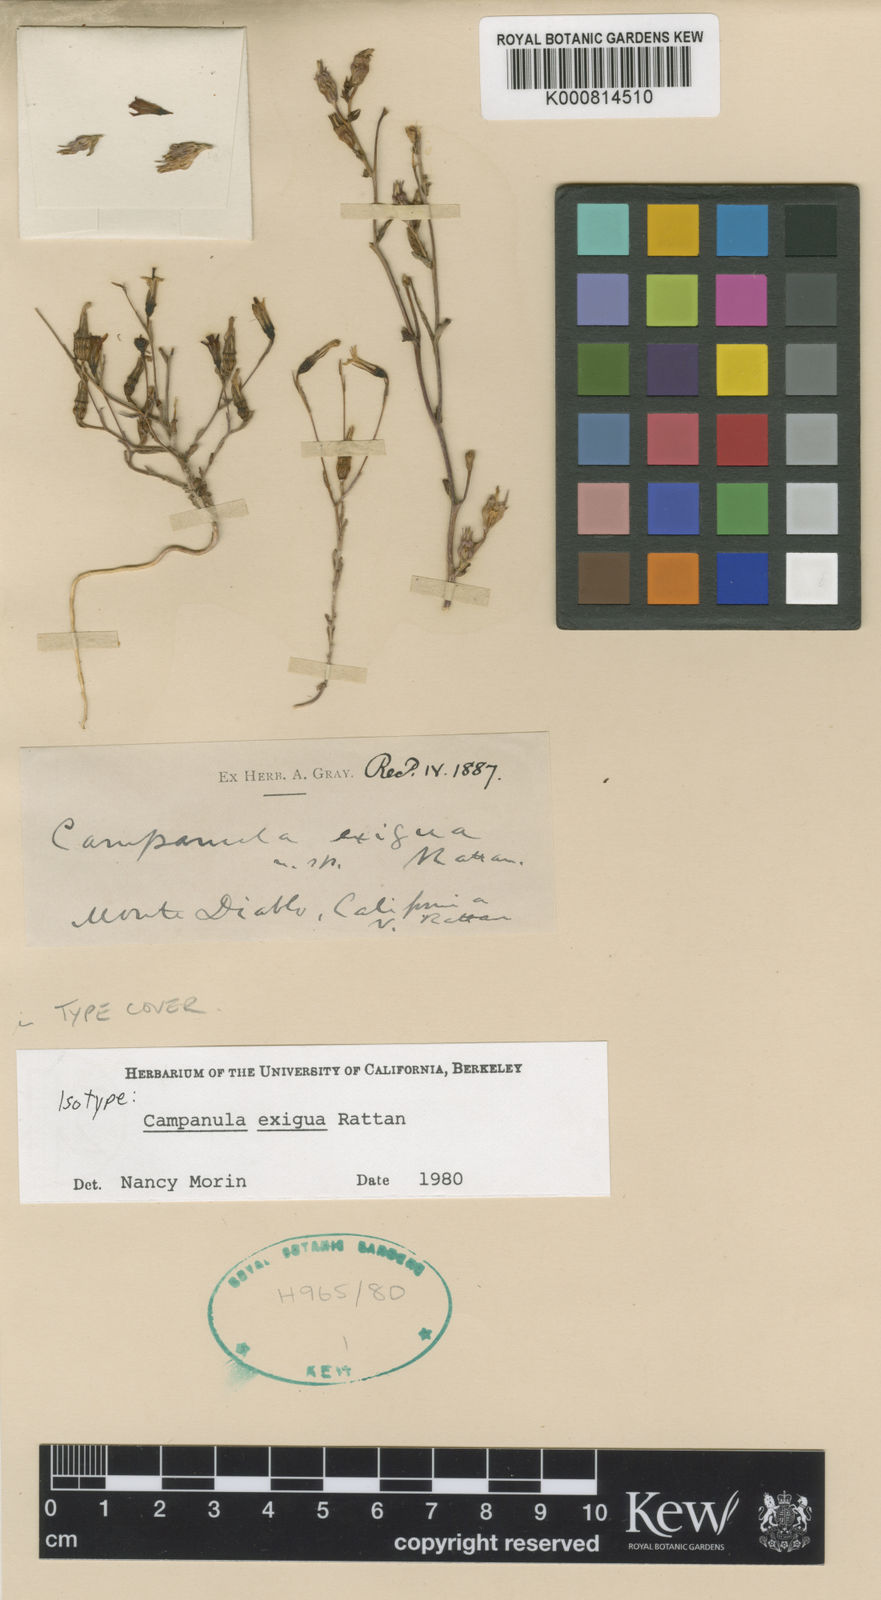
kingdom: Plantae
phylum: Tracheophyta
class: Magnoliopsida
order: Asterales
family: Campanulaceae
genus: Ravenella
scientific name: Ravenella exigua
